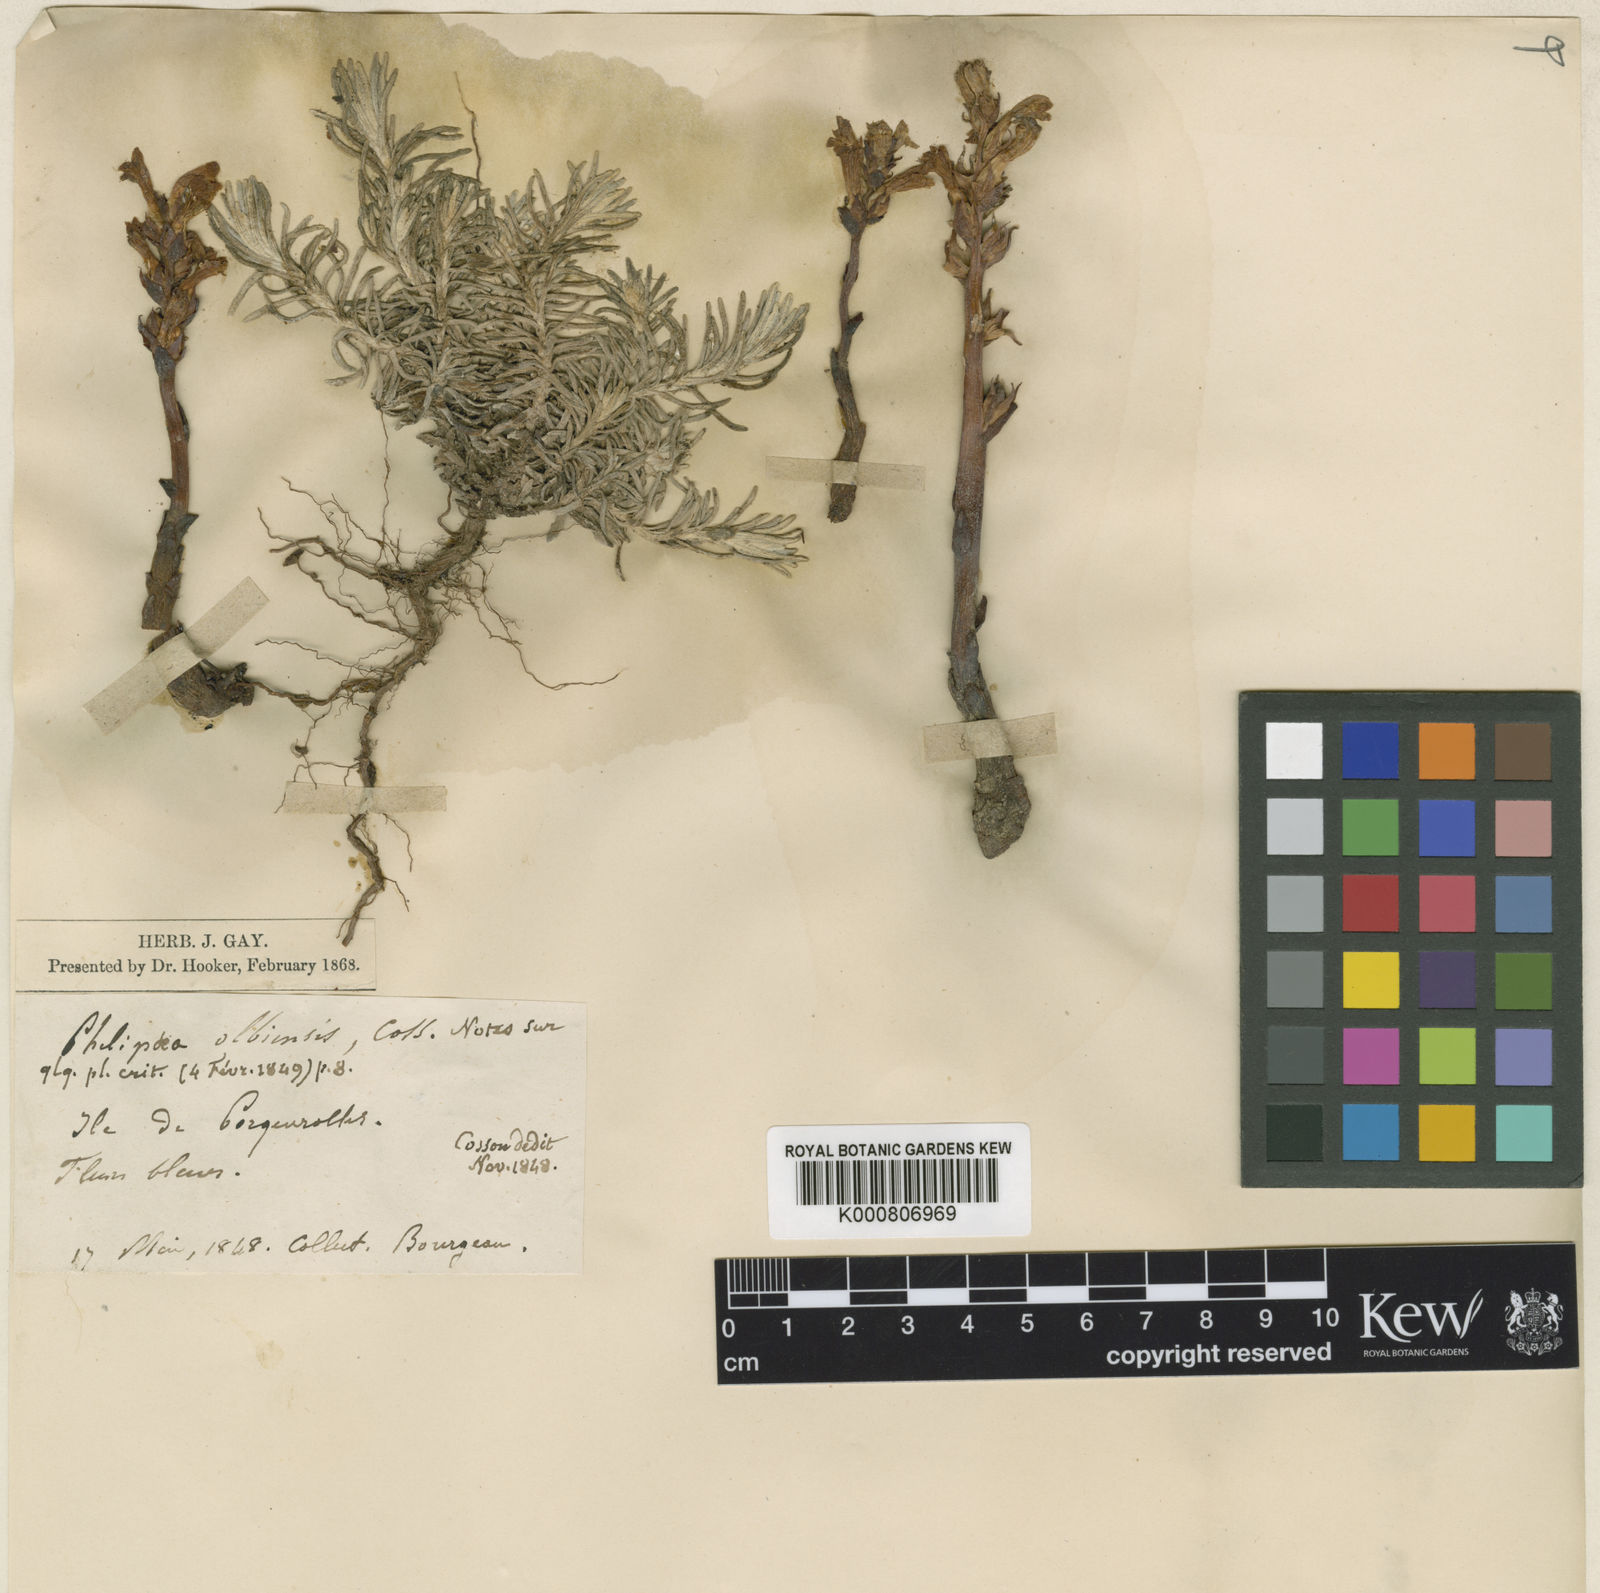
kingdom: Plantae
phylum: Tracheophyta
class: Magnoliopsida
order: Lamiales
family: Orobanchaceae
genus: Phelipanche
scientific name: Phelipanche olbiensis
